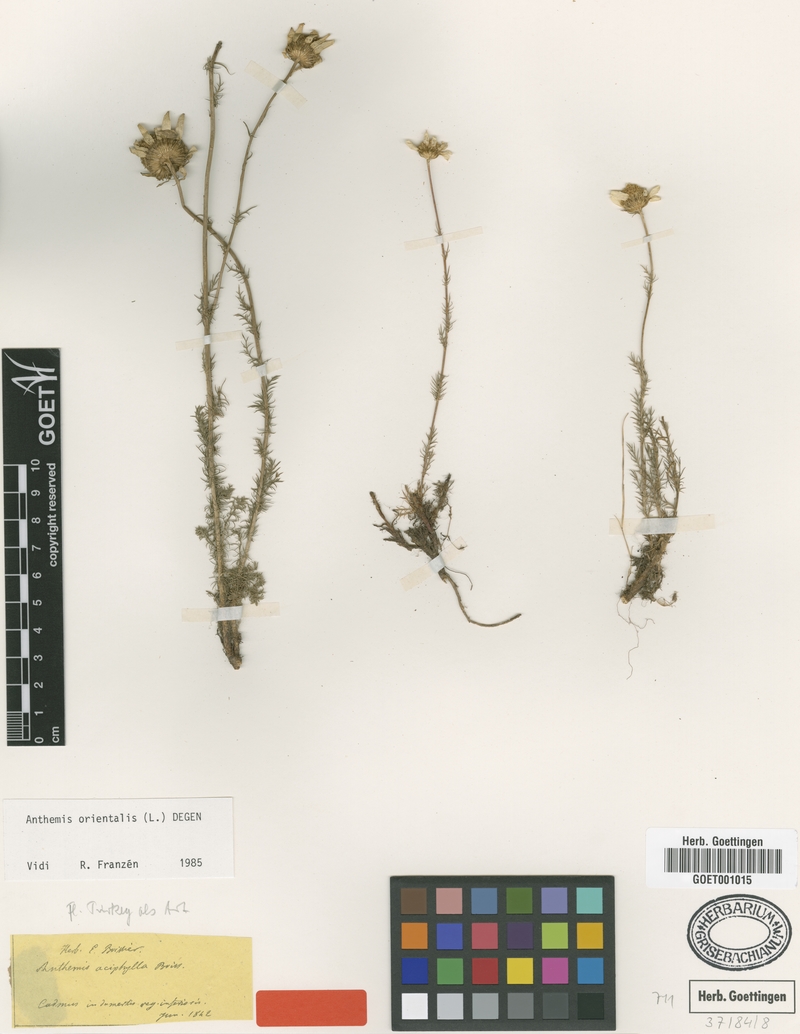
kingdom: Plantae
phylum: Tracheophyta
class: Magnoliopsida
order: Asterales
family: Asteraceae
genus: Anthemis
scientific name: Anthemis aciphylla
